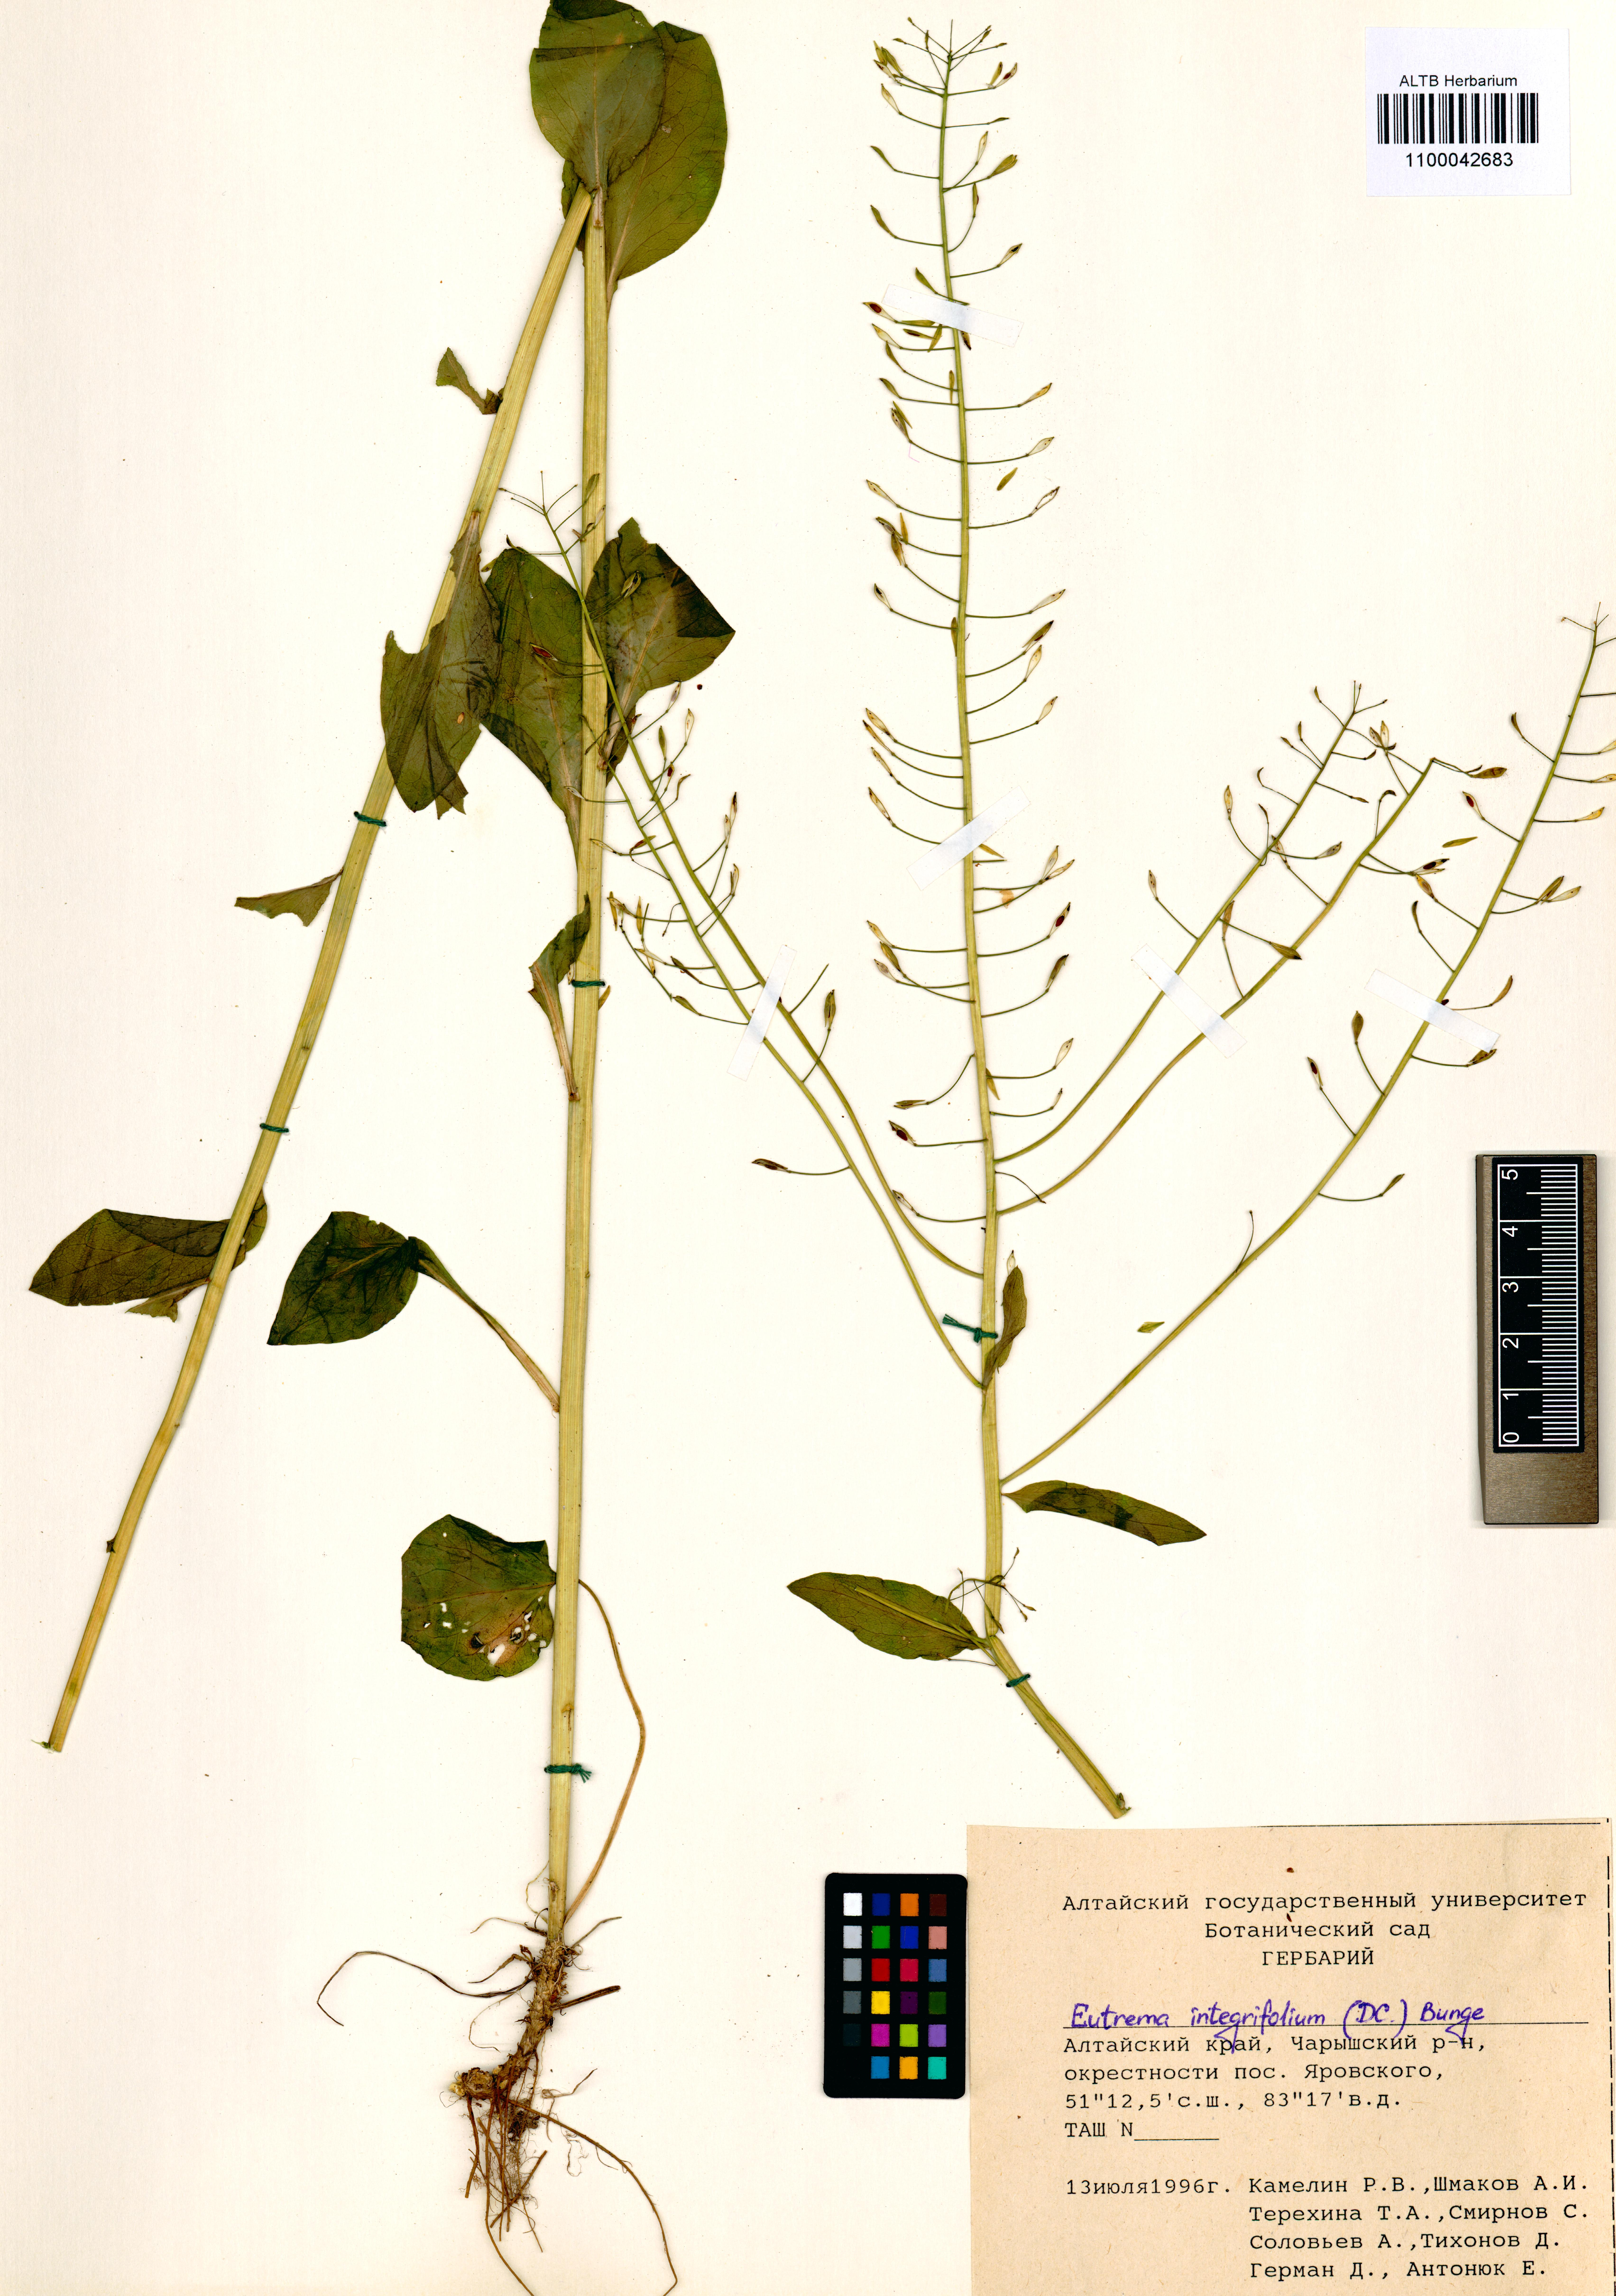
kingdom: Plantae
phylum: Tracheophyta
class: Magnoliopsida
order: Brassicales
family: Brassicaceae
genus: Eutrema
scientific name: Eutrema integrifolium
